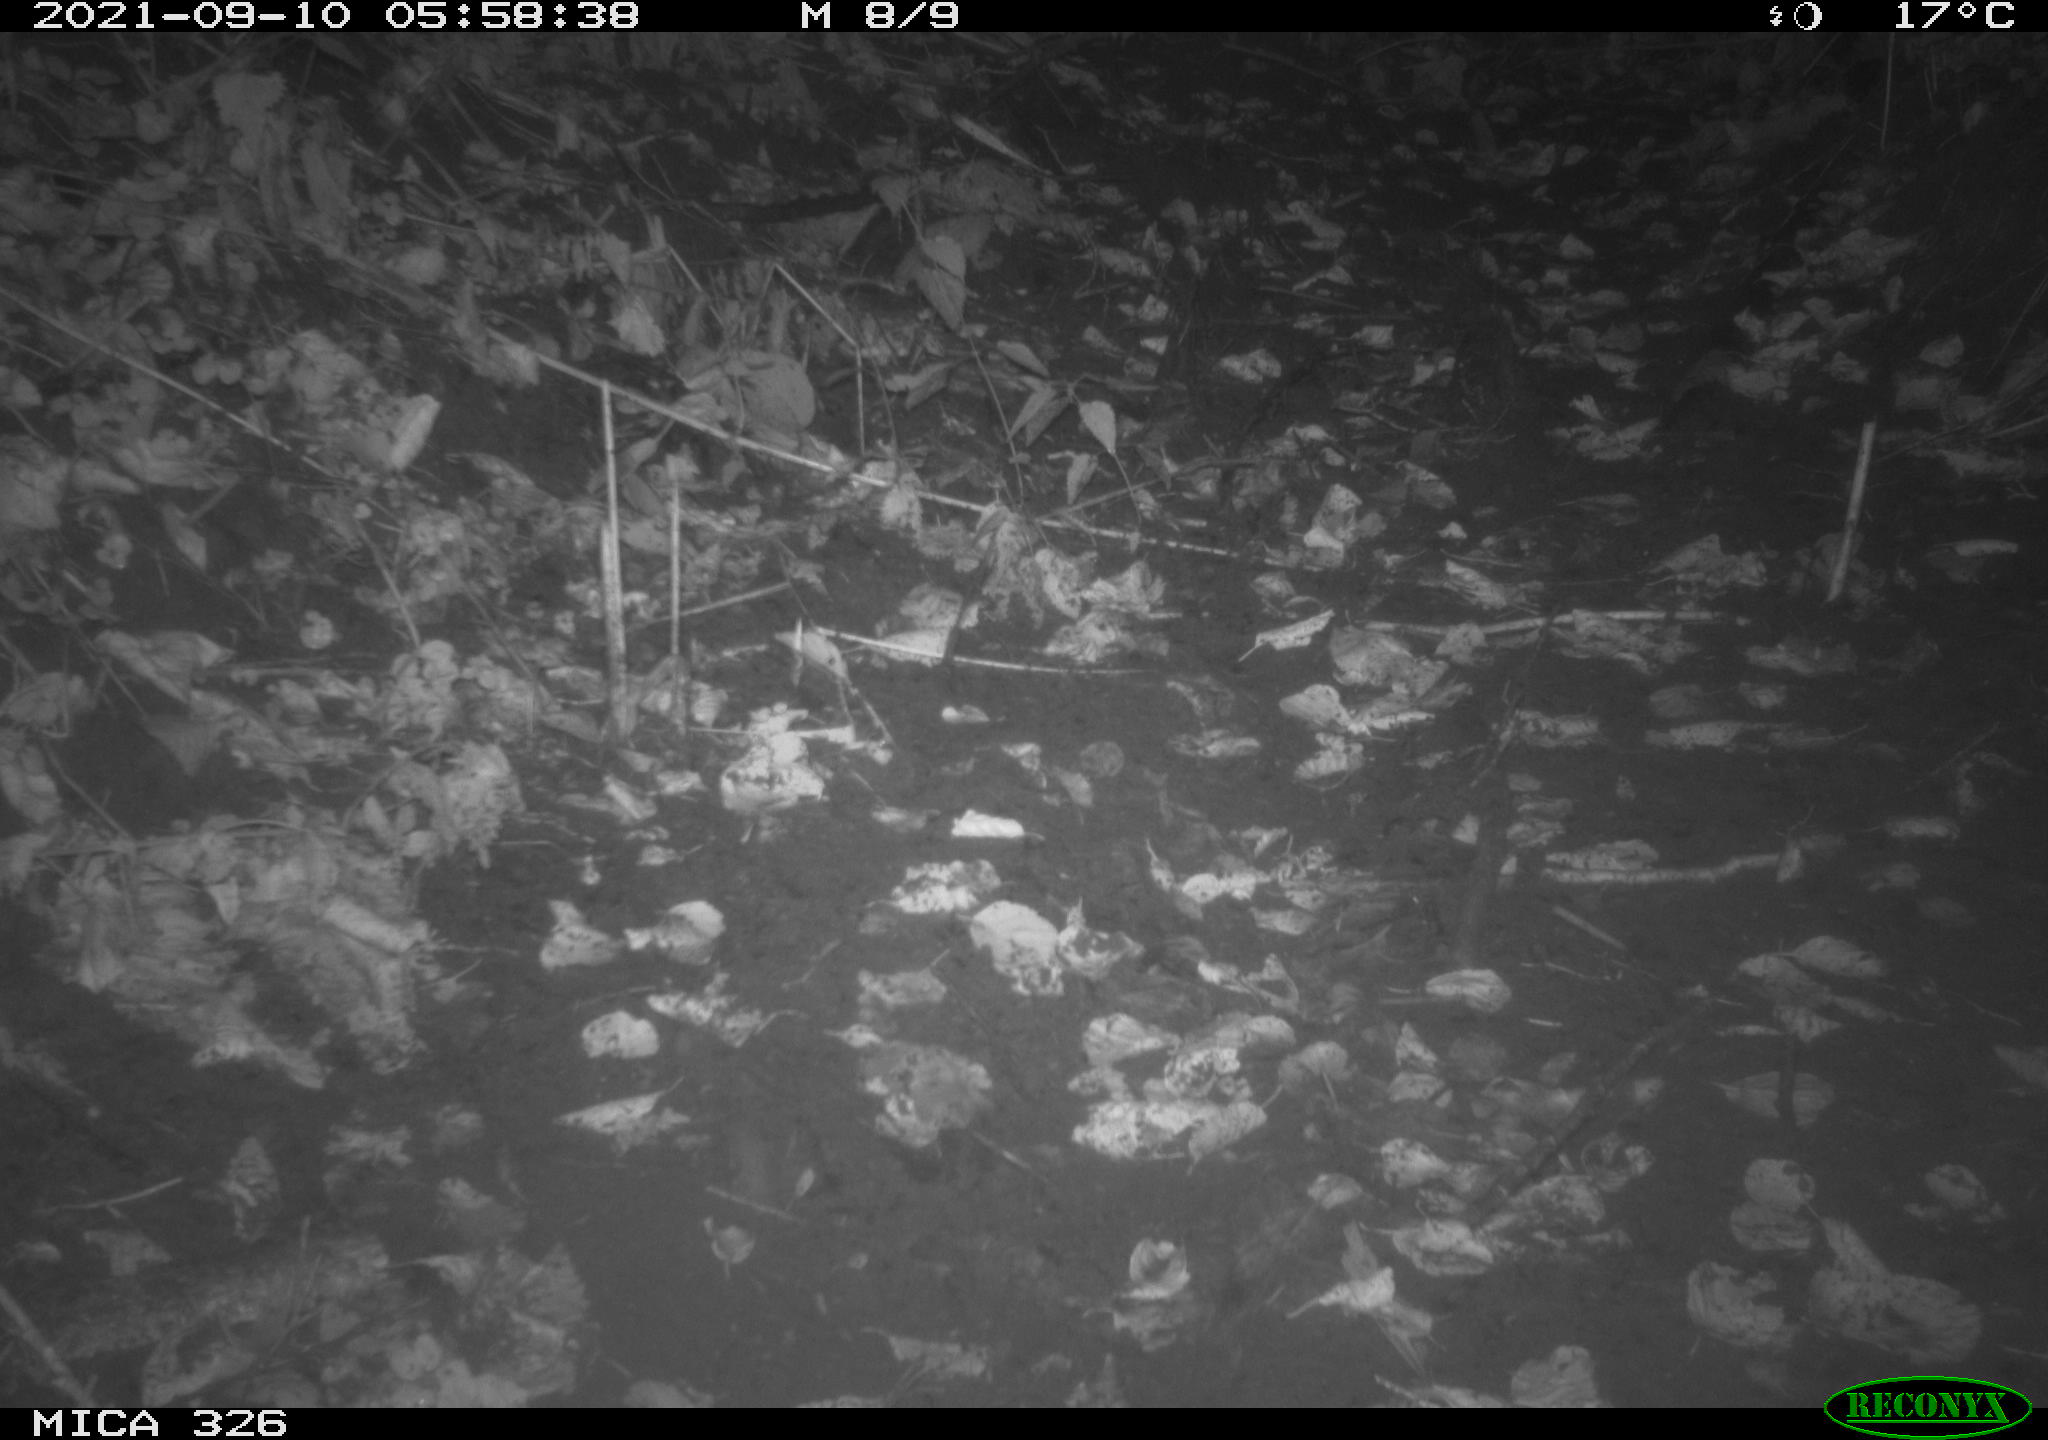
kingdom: Animalia
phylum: Chordata
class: Mammalia
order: Rodentia
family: Muridae
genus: Rattus
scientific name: Rattus norvegicus
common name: Brown rat
